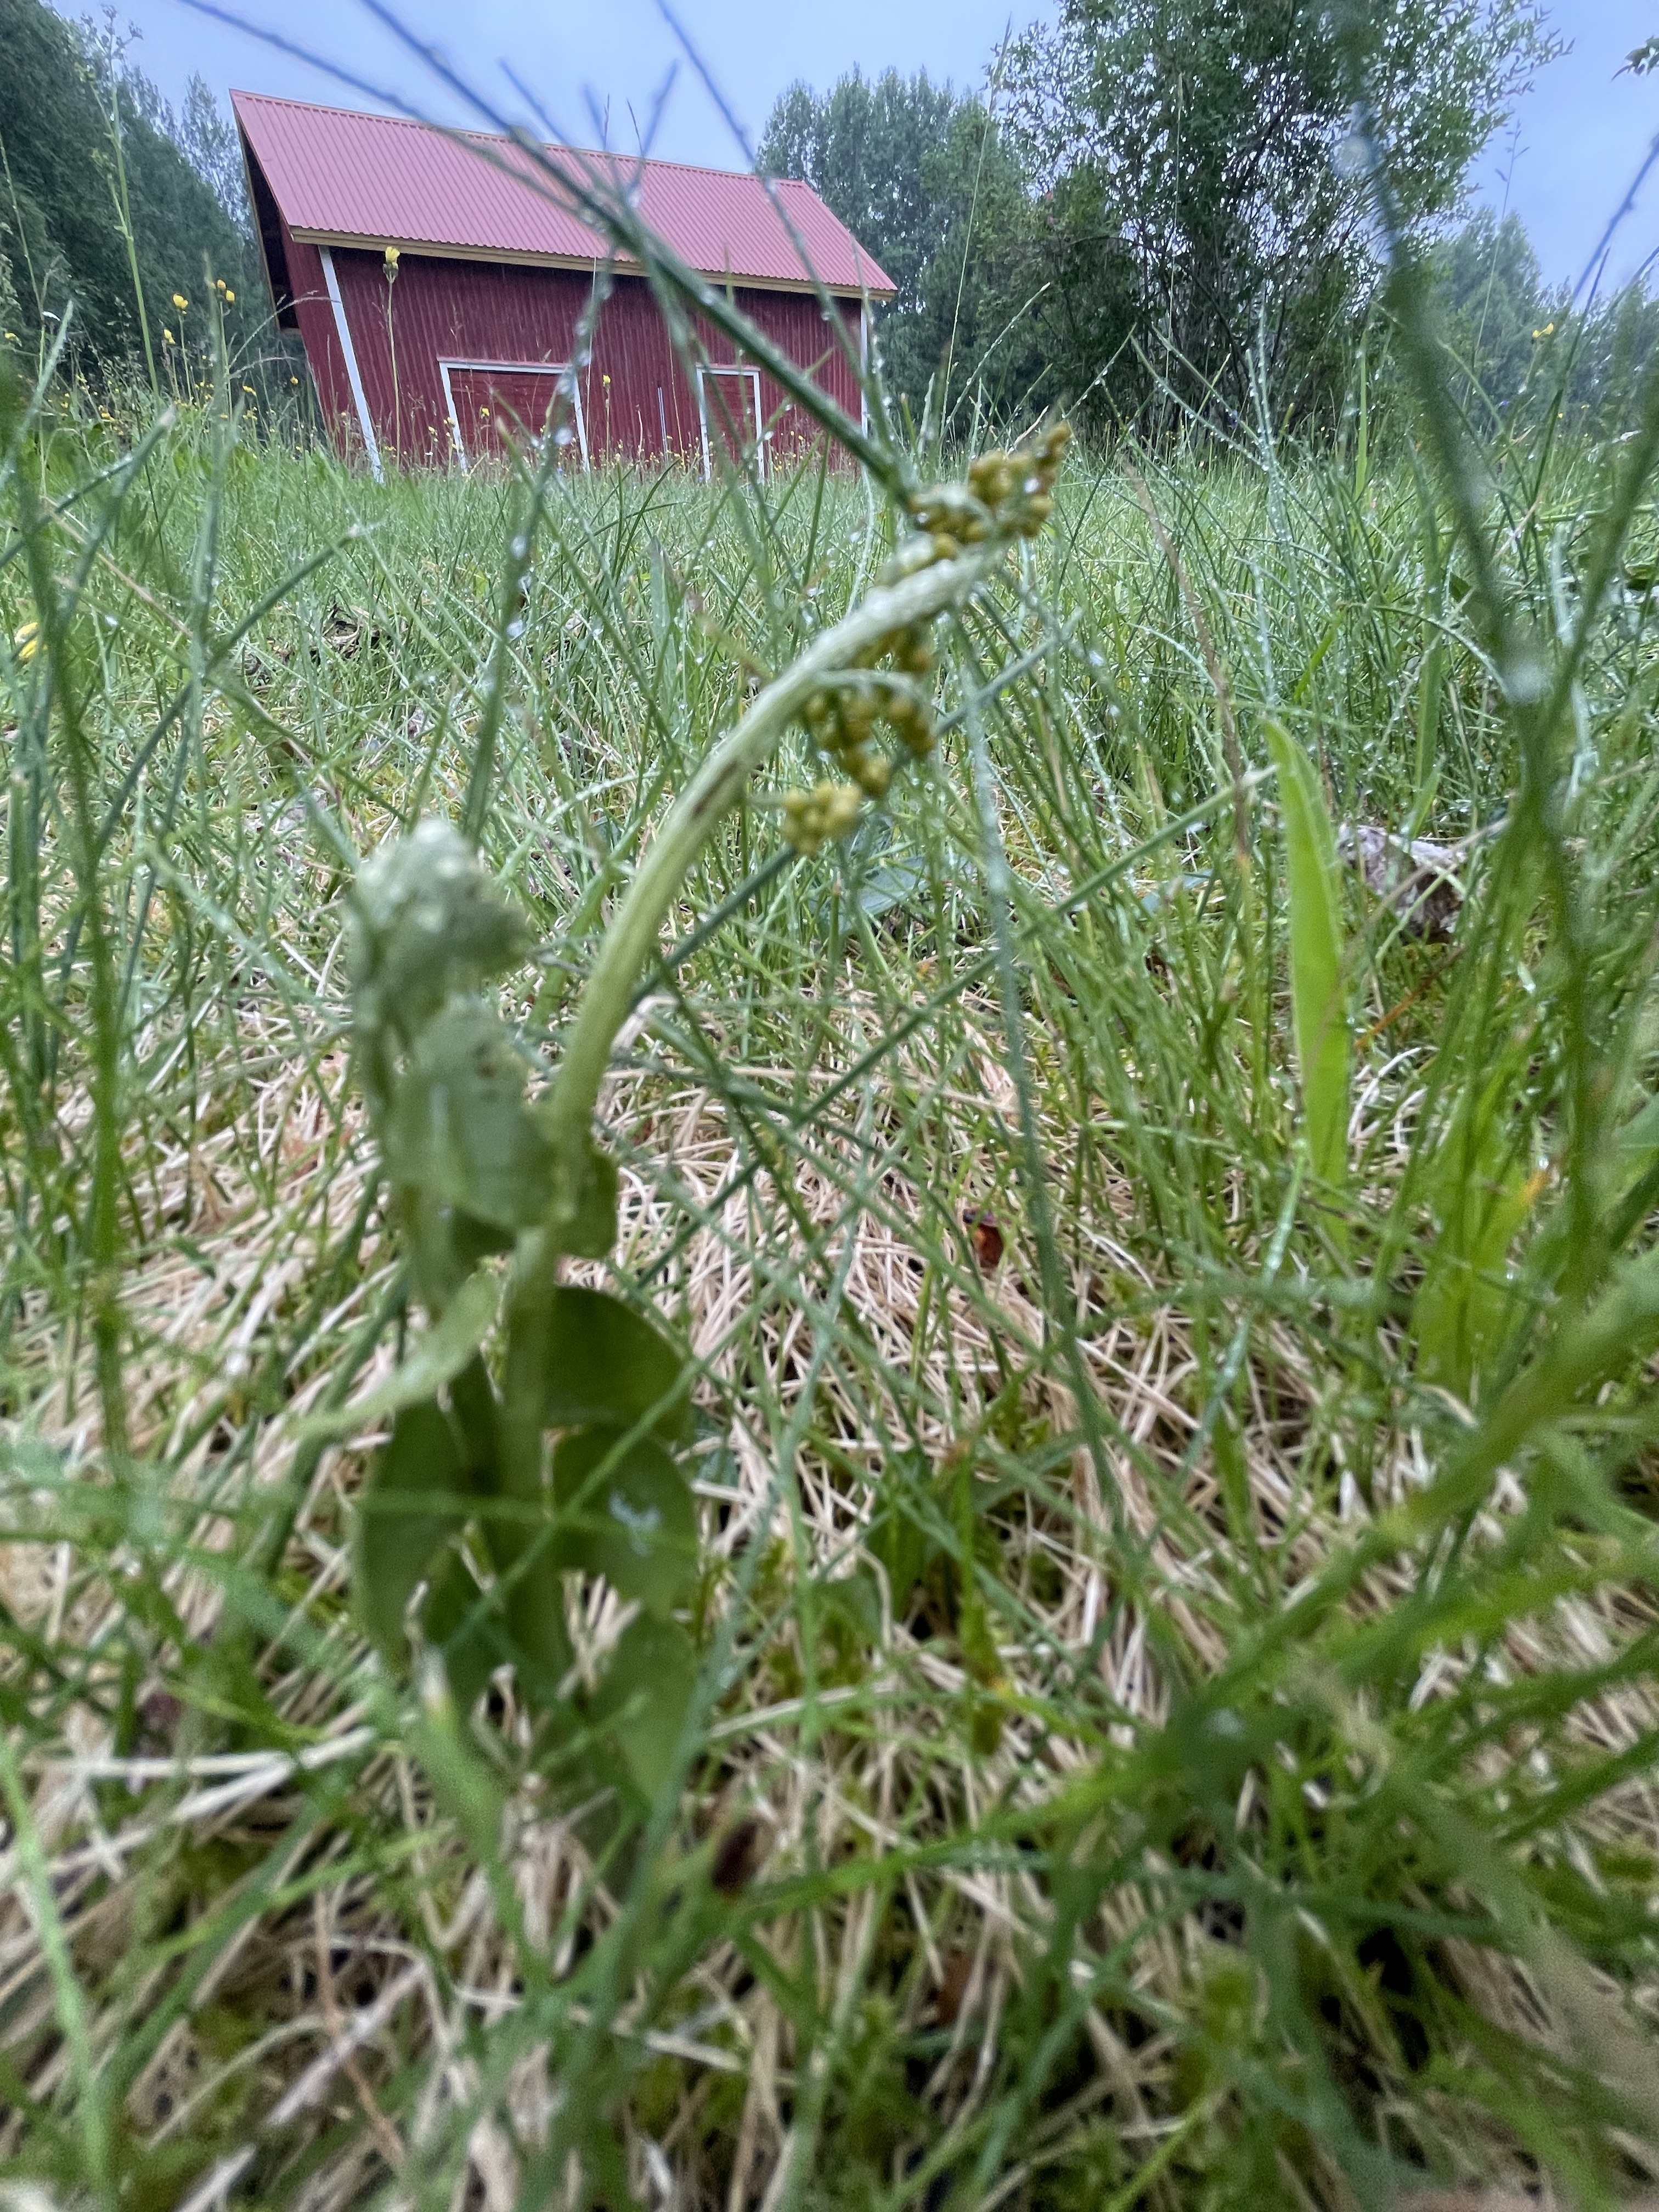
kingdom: Plantae
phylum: Tracheophyta
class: Polypodiopsida
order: Ophioglossales
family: Ophioglossaceae
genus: Botrychium
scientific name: Botrychium lunaria
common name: Moonwort
